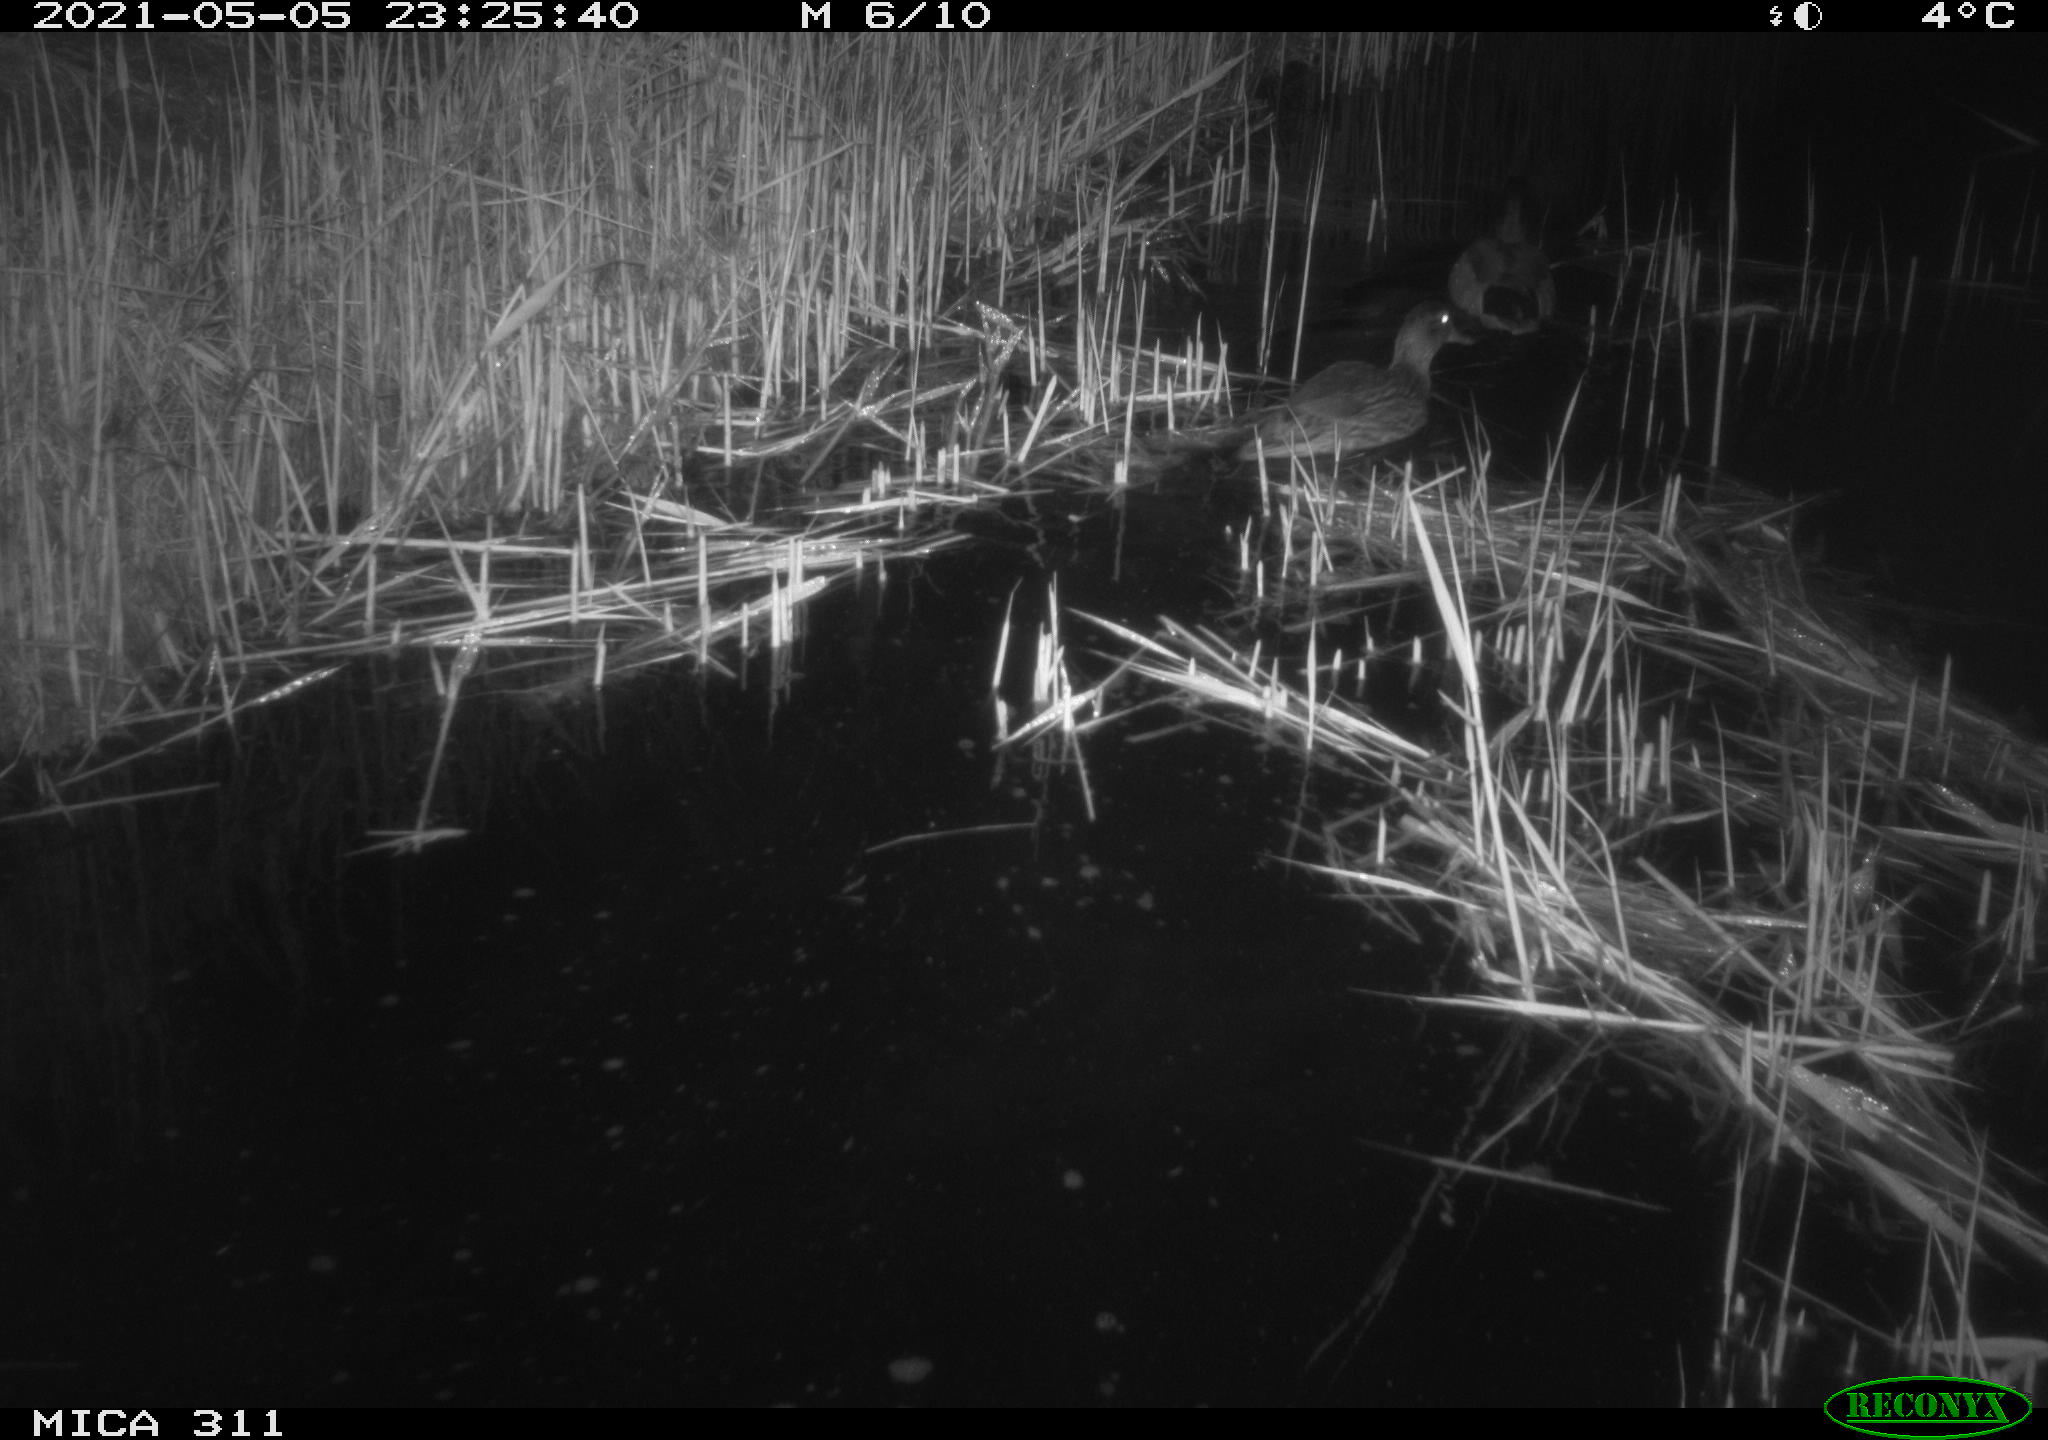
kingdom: Animalia
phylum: Chordata
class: Aves
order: Anseriformes
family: Anatidae
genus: Anas
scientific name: Anas platyrhynchos
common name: Mallard
